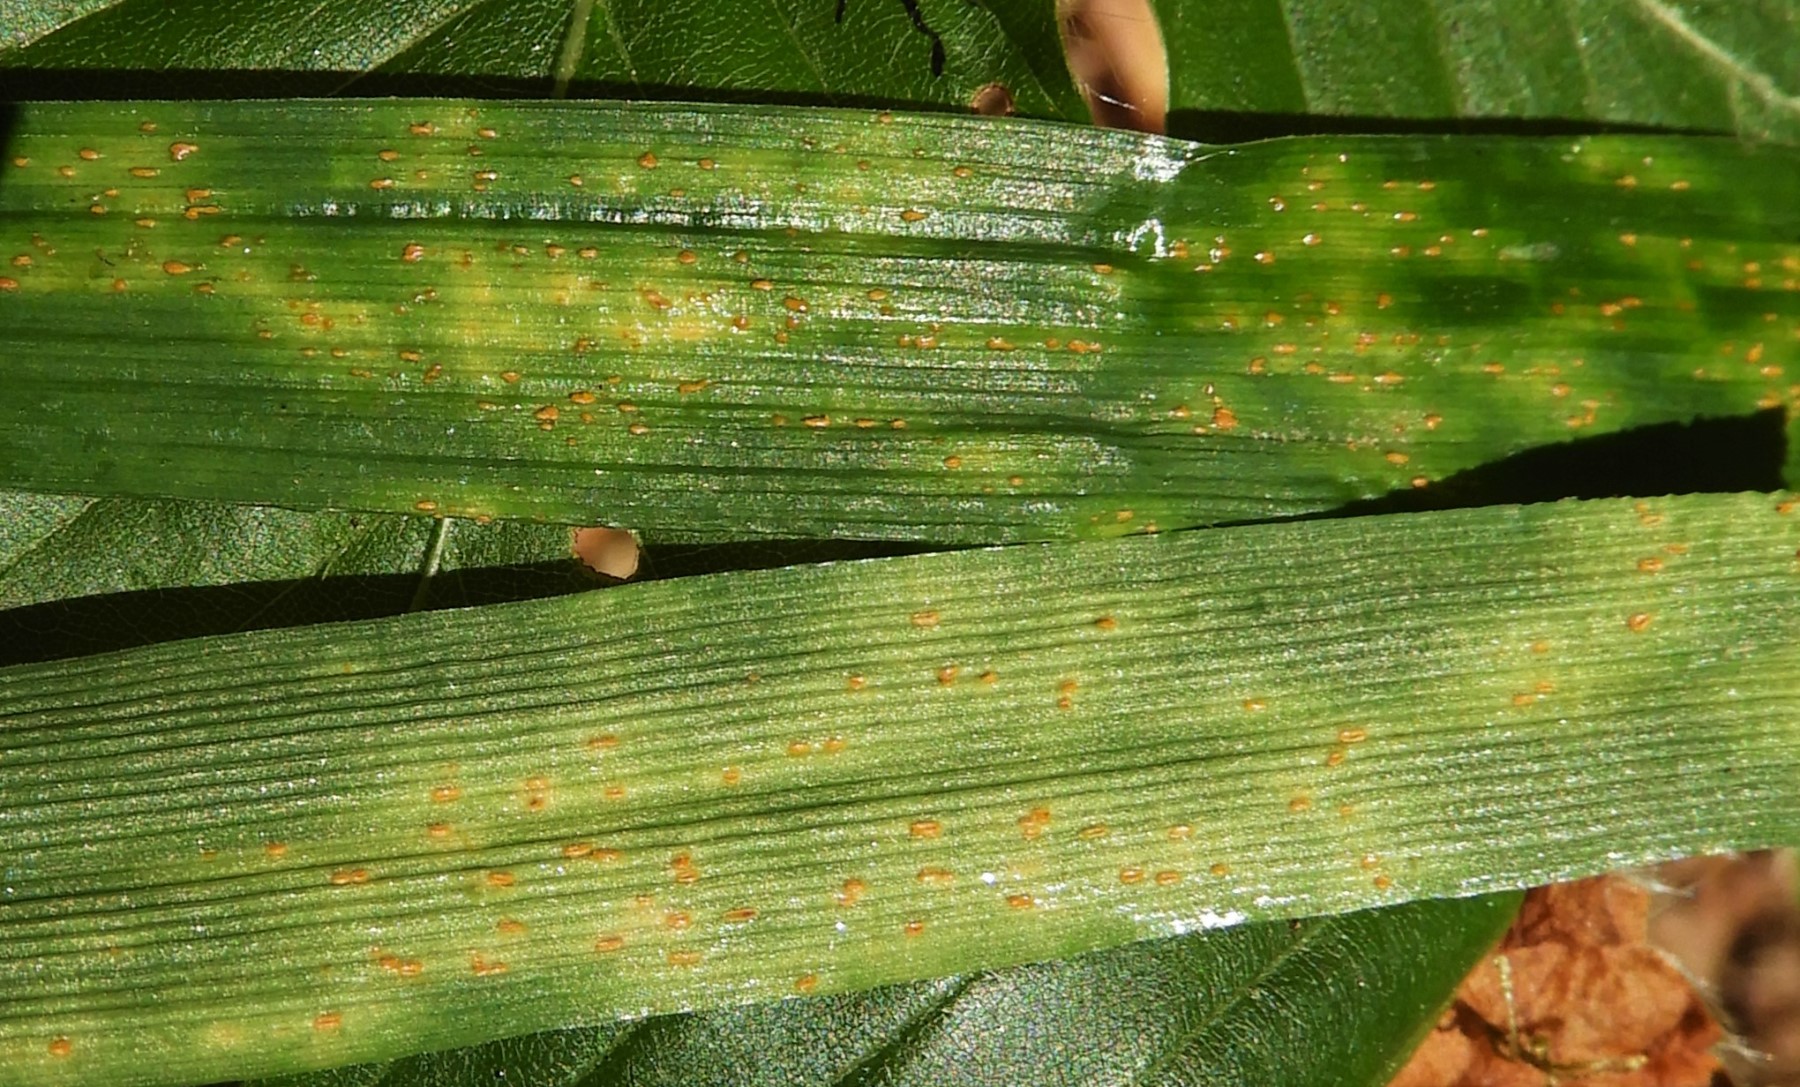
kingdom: Fungi
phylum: Basidiomycota
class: Pucciniomycetes
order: Pucciniales
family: Pucciniaceae
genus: Puccinia
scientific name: Puccinia
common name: tvecellerust
